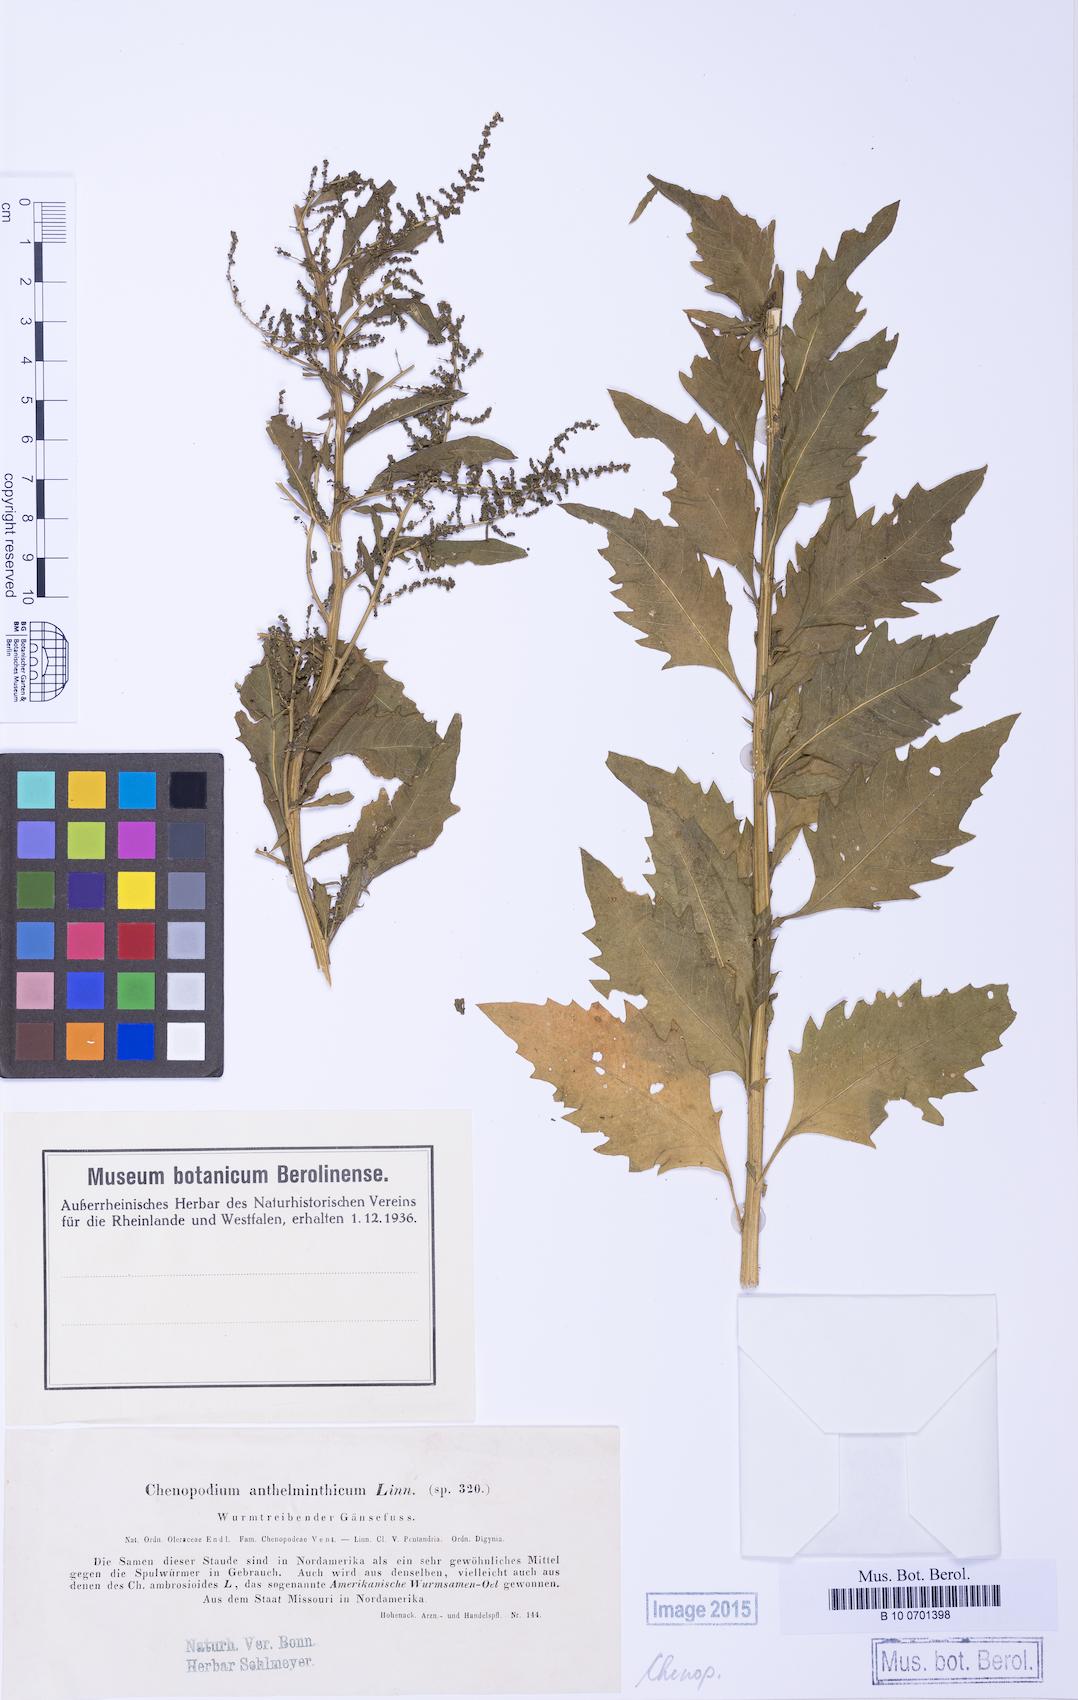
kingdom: Plantae
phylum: Tracheophyta
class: Magnoliopsida
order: Caryophyllales
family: Amaranthaceae
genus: Dysphania
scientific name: Dysphania anthelmintica
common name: Wormseed
